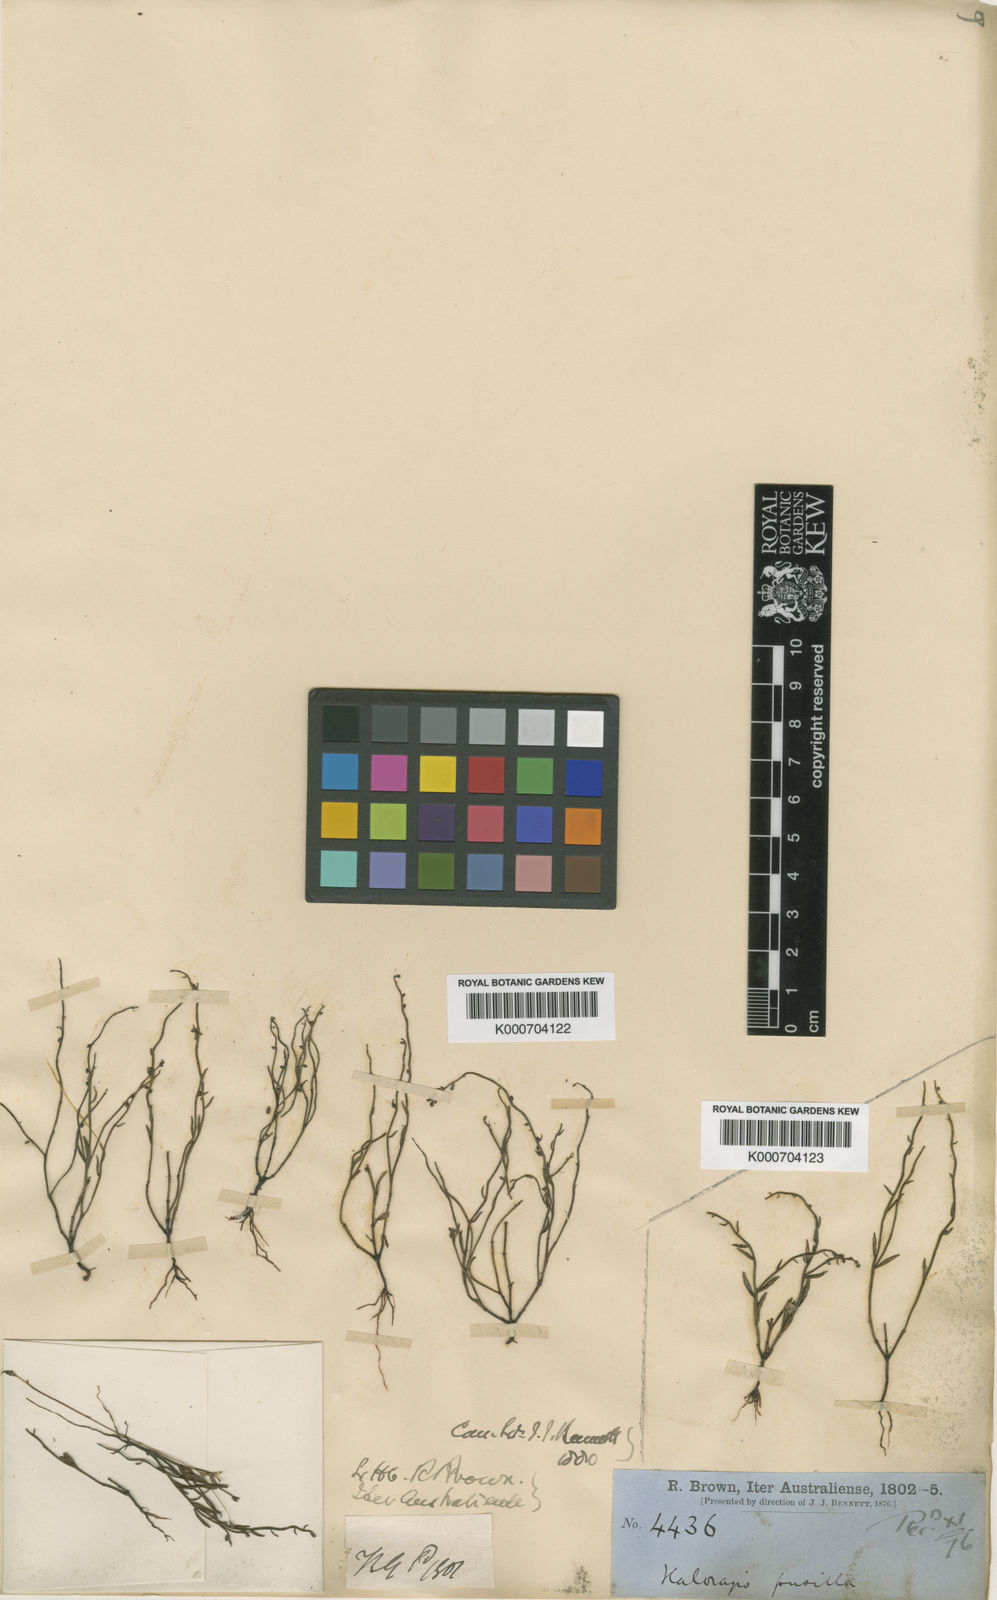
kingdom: Plantae
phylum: Tracheophyta
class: Magnoliopsida
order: Saxifragales
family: Haloragaceae
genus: Gonocarpus
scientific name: Gonocarpus pusillus
